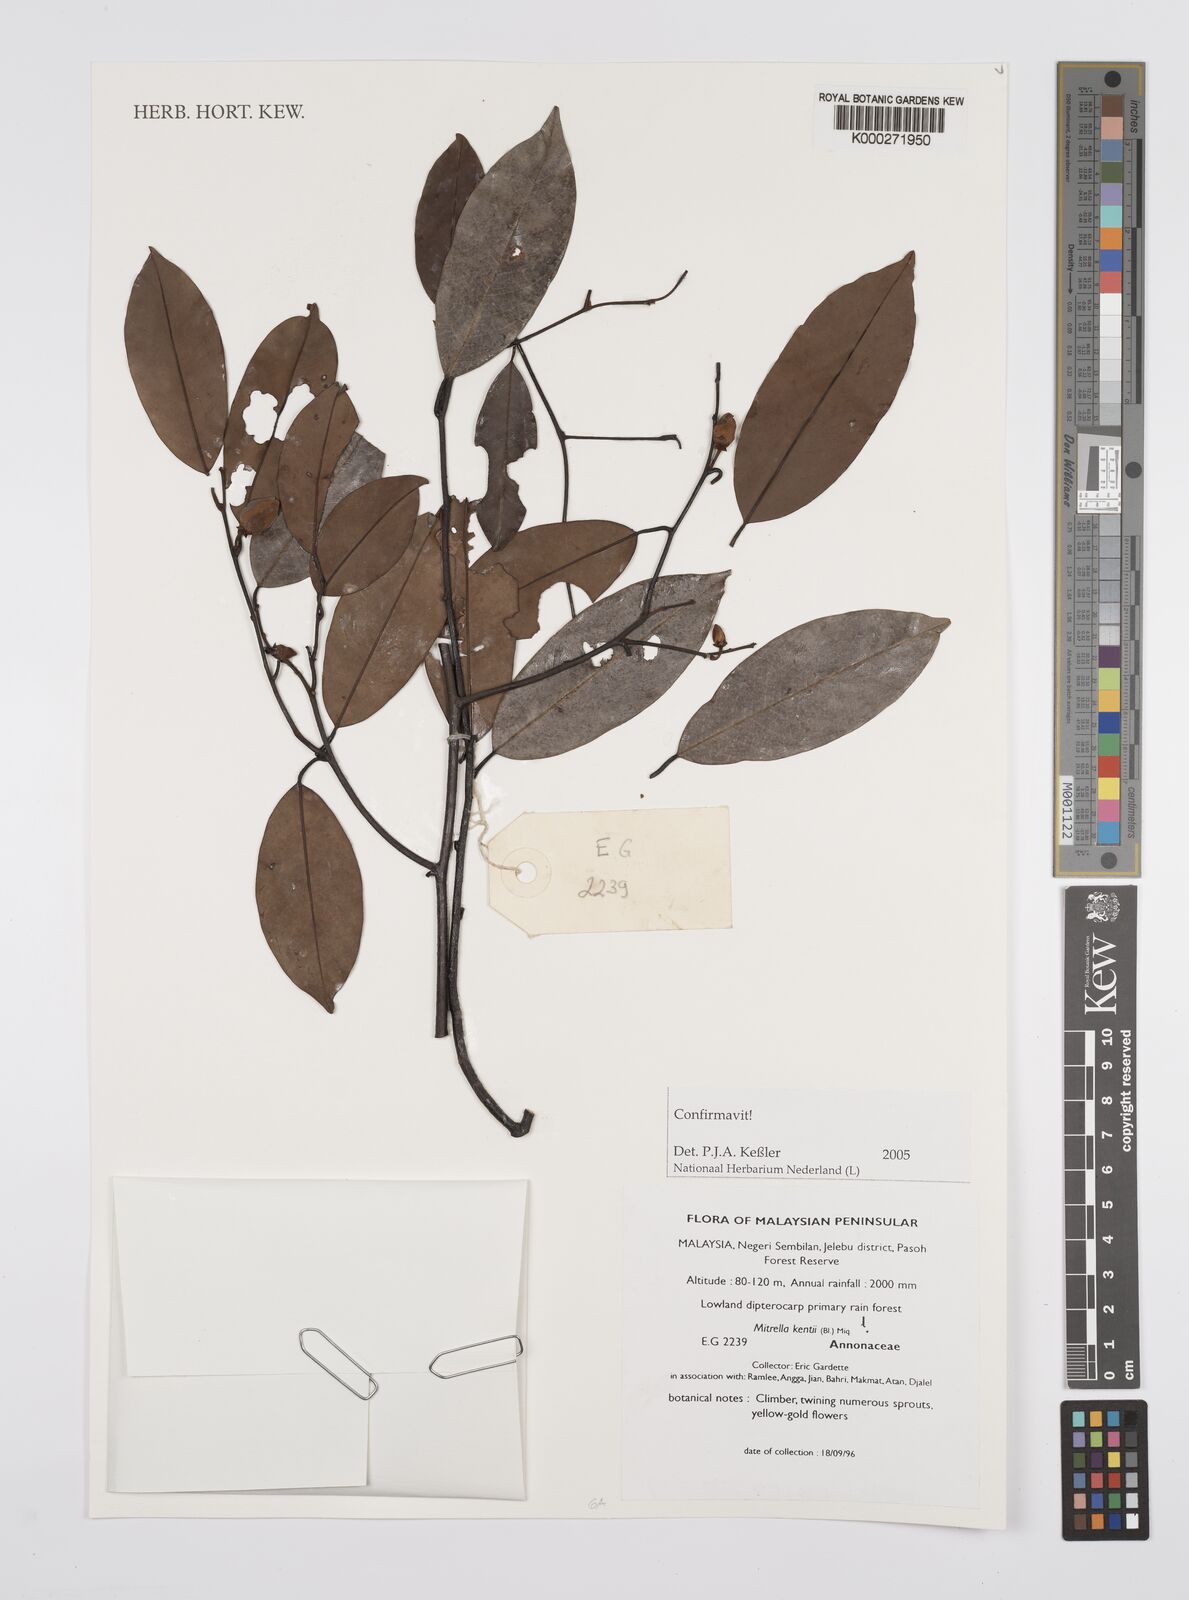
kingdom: Plantae
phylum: Tracheophyta
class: Magnoliopsida
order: Magnoliales
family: Annonaceae
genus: Mitrella
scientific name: Mitrella kentii
